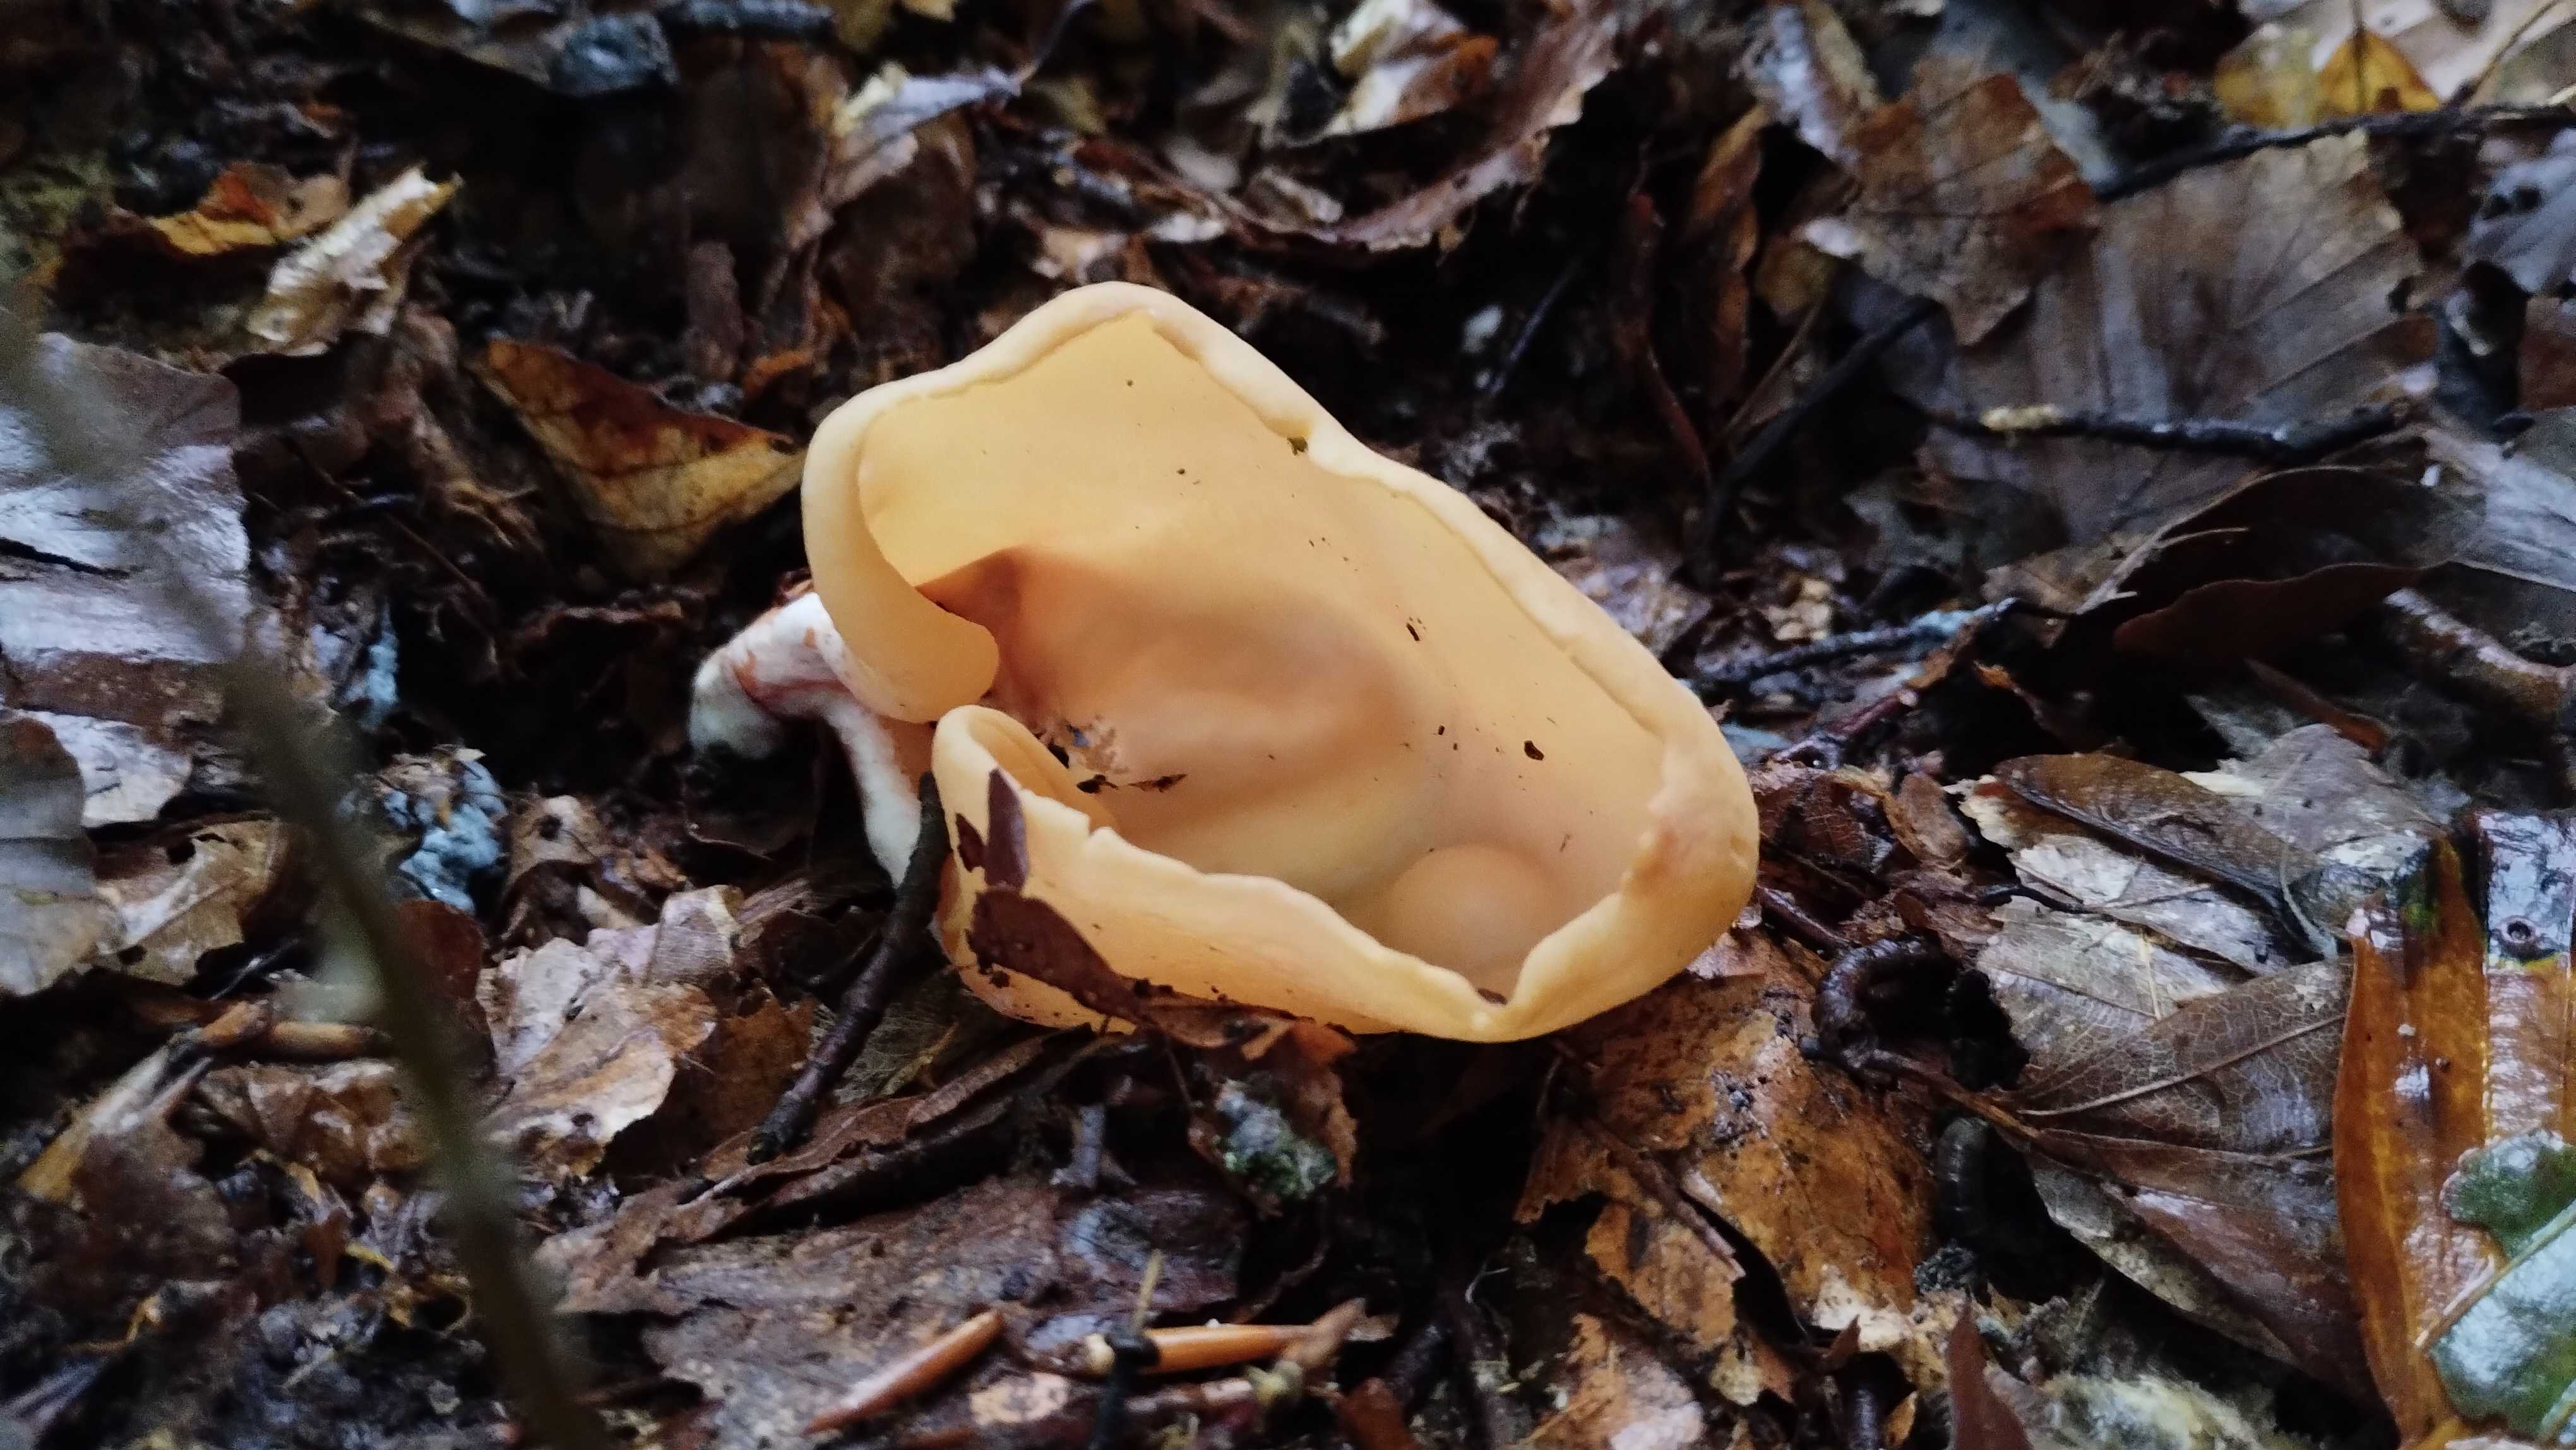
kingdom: Fungi
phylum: Ascomycota
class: Pezizomycetes
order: Pezizales
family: Otideaceae
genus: Otidea
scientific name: Otidea onotica
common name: æsel-ørebæger
